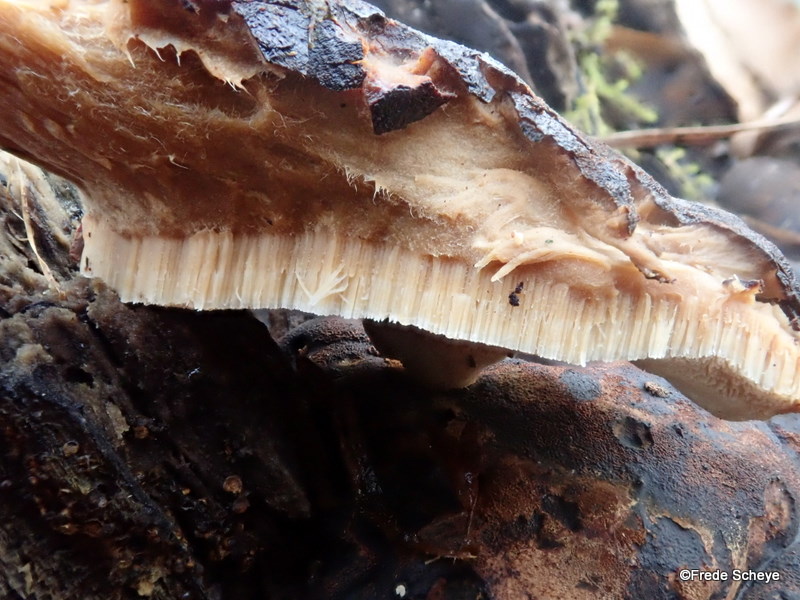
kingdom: Fungi
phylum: Basidiomycota
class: Agaricomycetes
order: Polyporales
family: Ischnodermataceae
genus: Ischnoderma
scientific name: Ischnoderma resinosum
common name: løv-tjæreporesvamp
